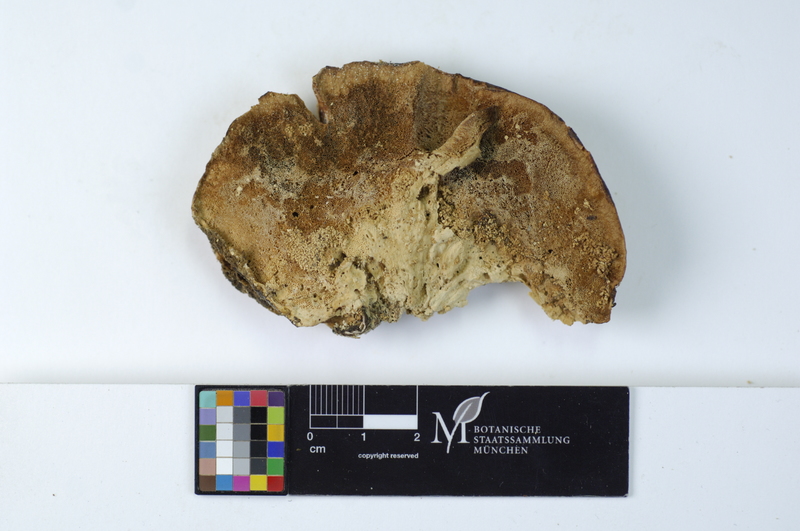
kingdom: Fungi
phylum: Basidiomycota
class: Agaricomycetes
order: Polyporales
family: Polyporaceae
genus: Trametes
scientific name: Trametes pubescens
